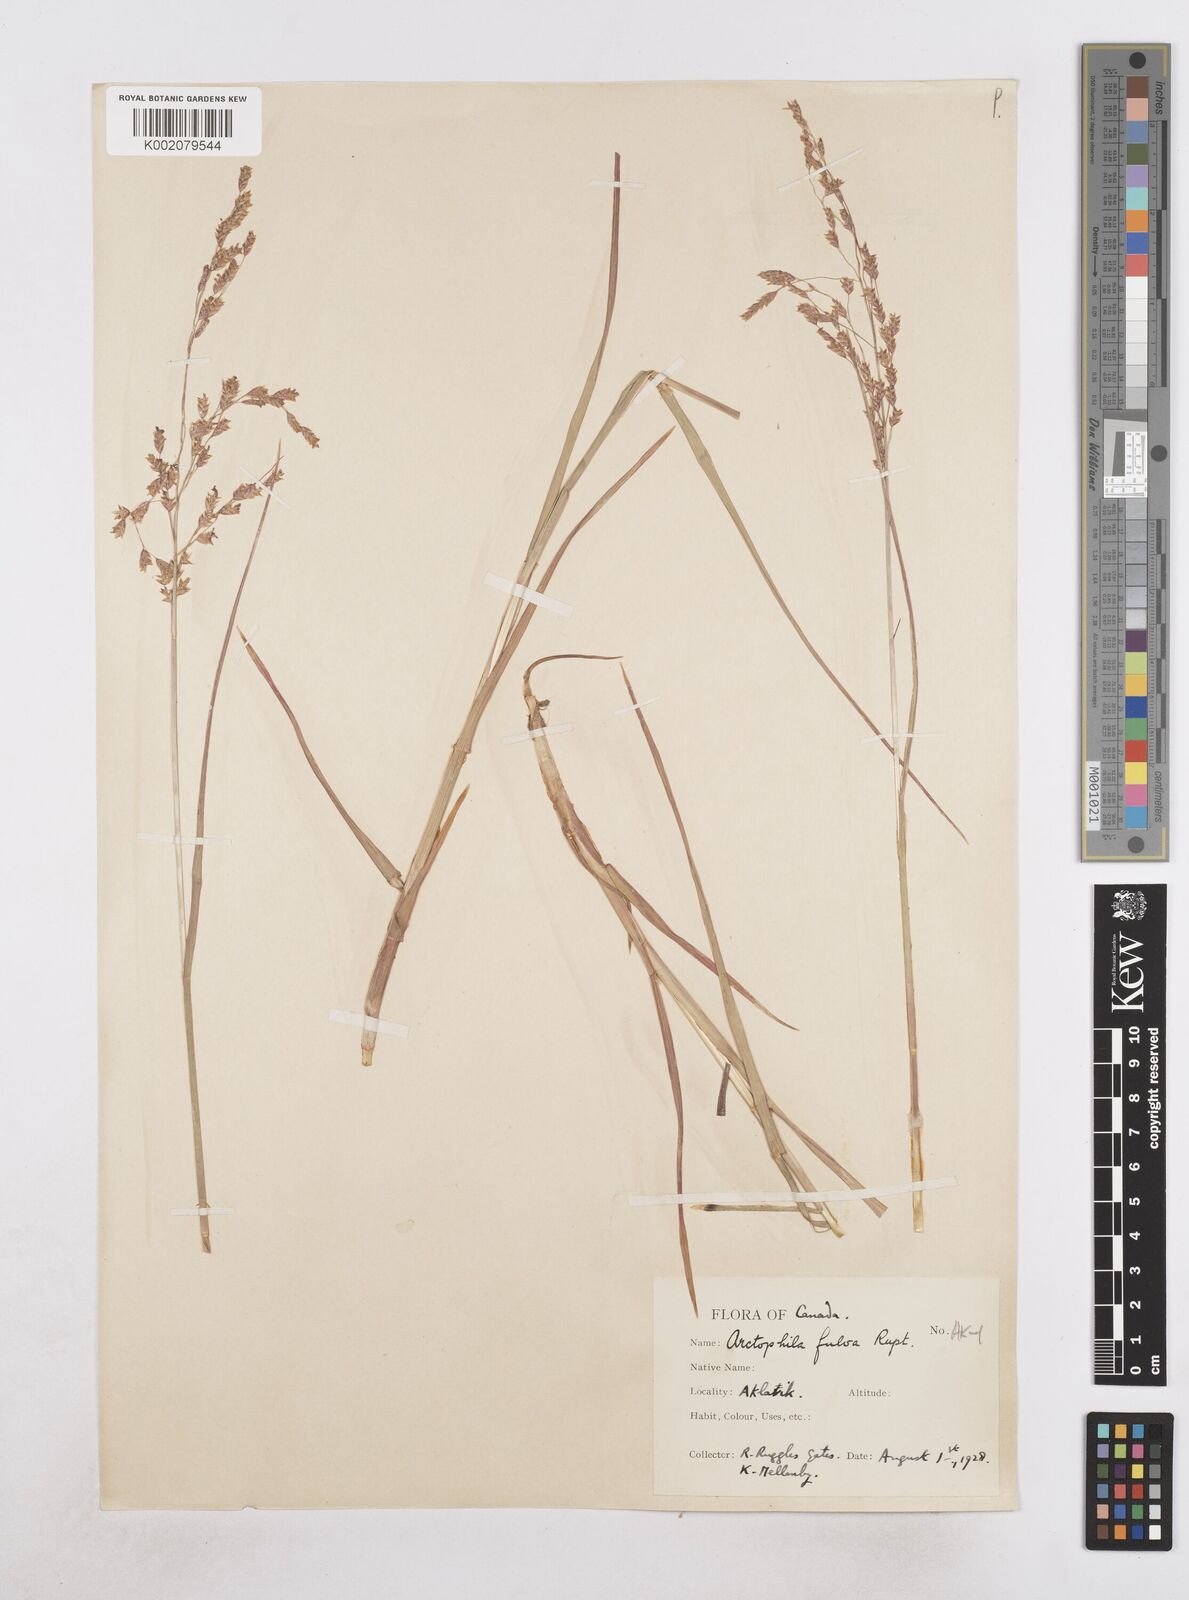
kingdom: Plantae
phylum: Tracheophyta
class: Liliopsida
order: Poales
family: Poaceae
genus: Dupontia
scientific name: Dupontia fulva
